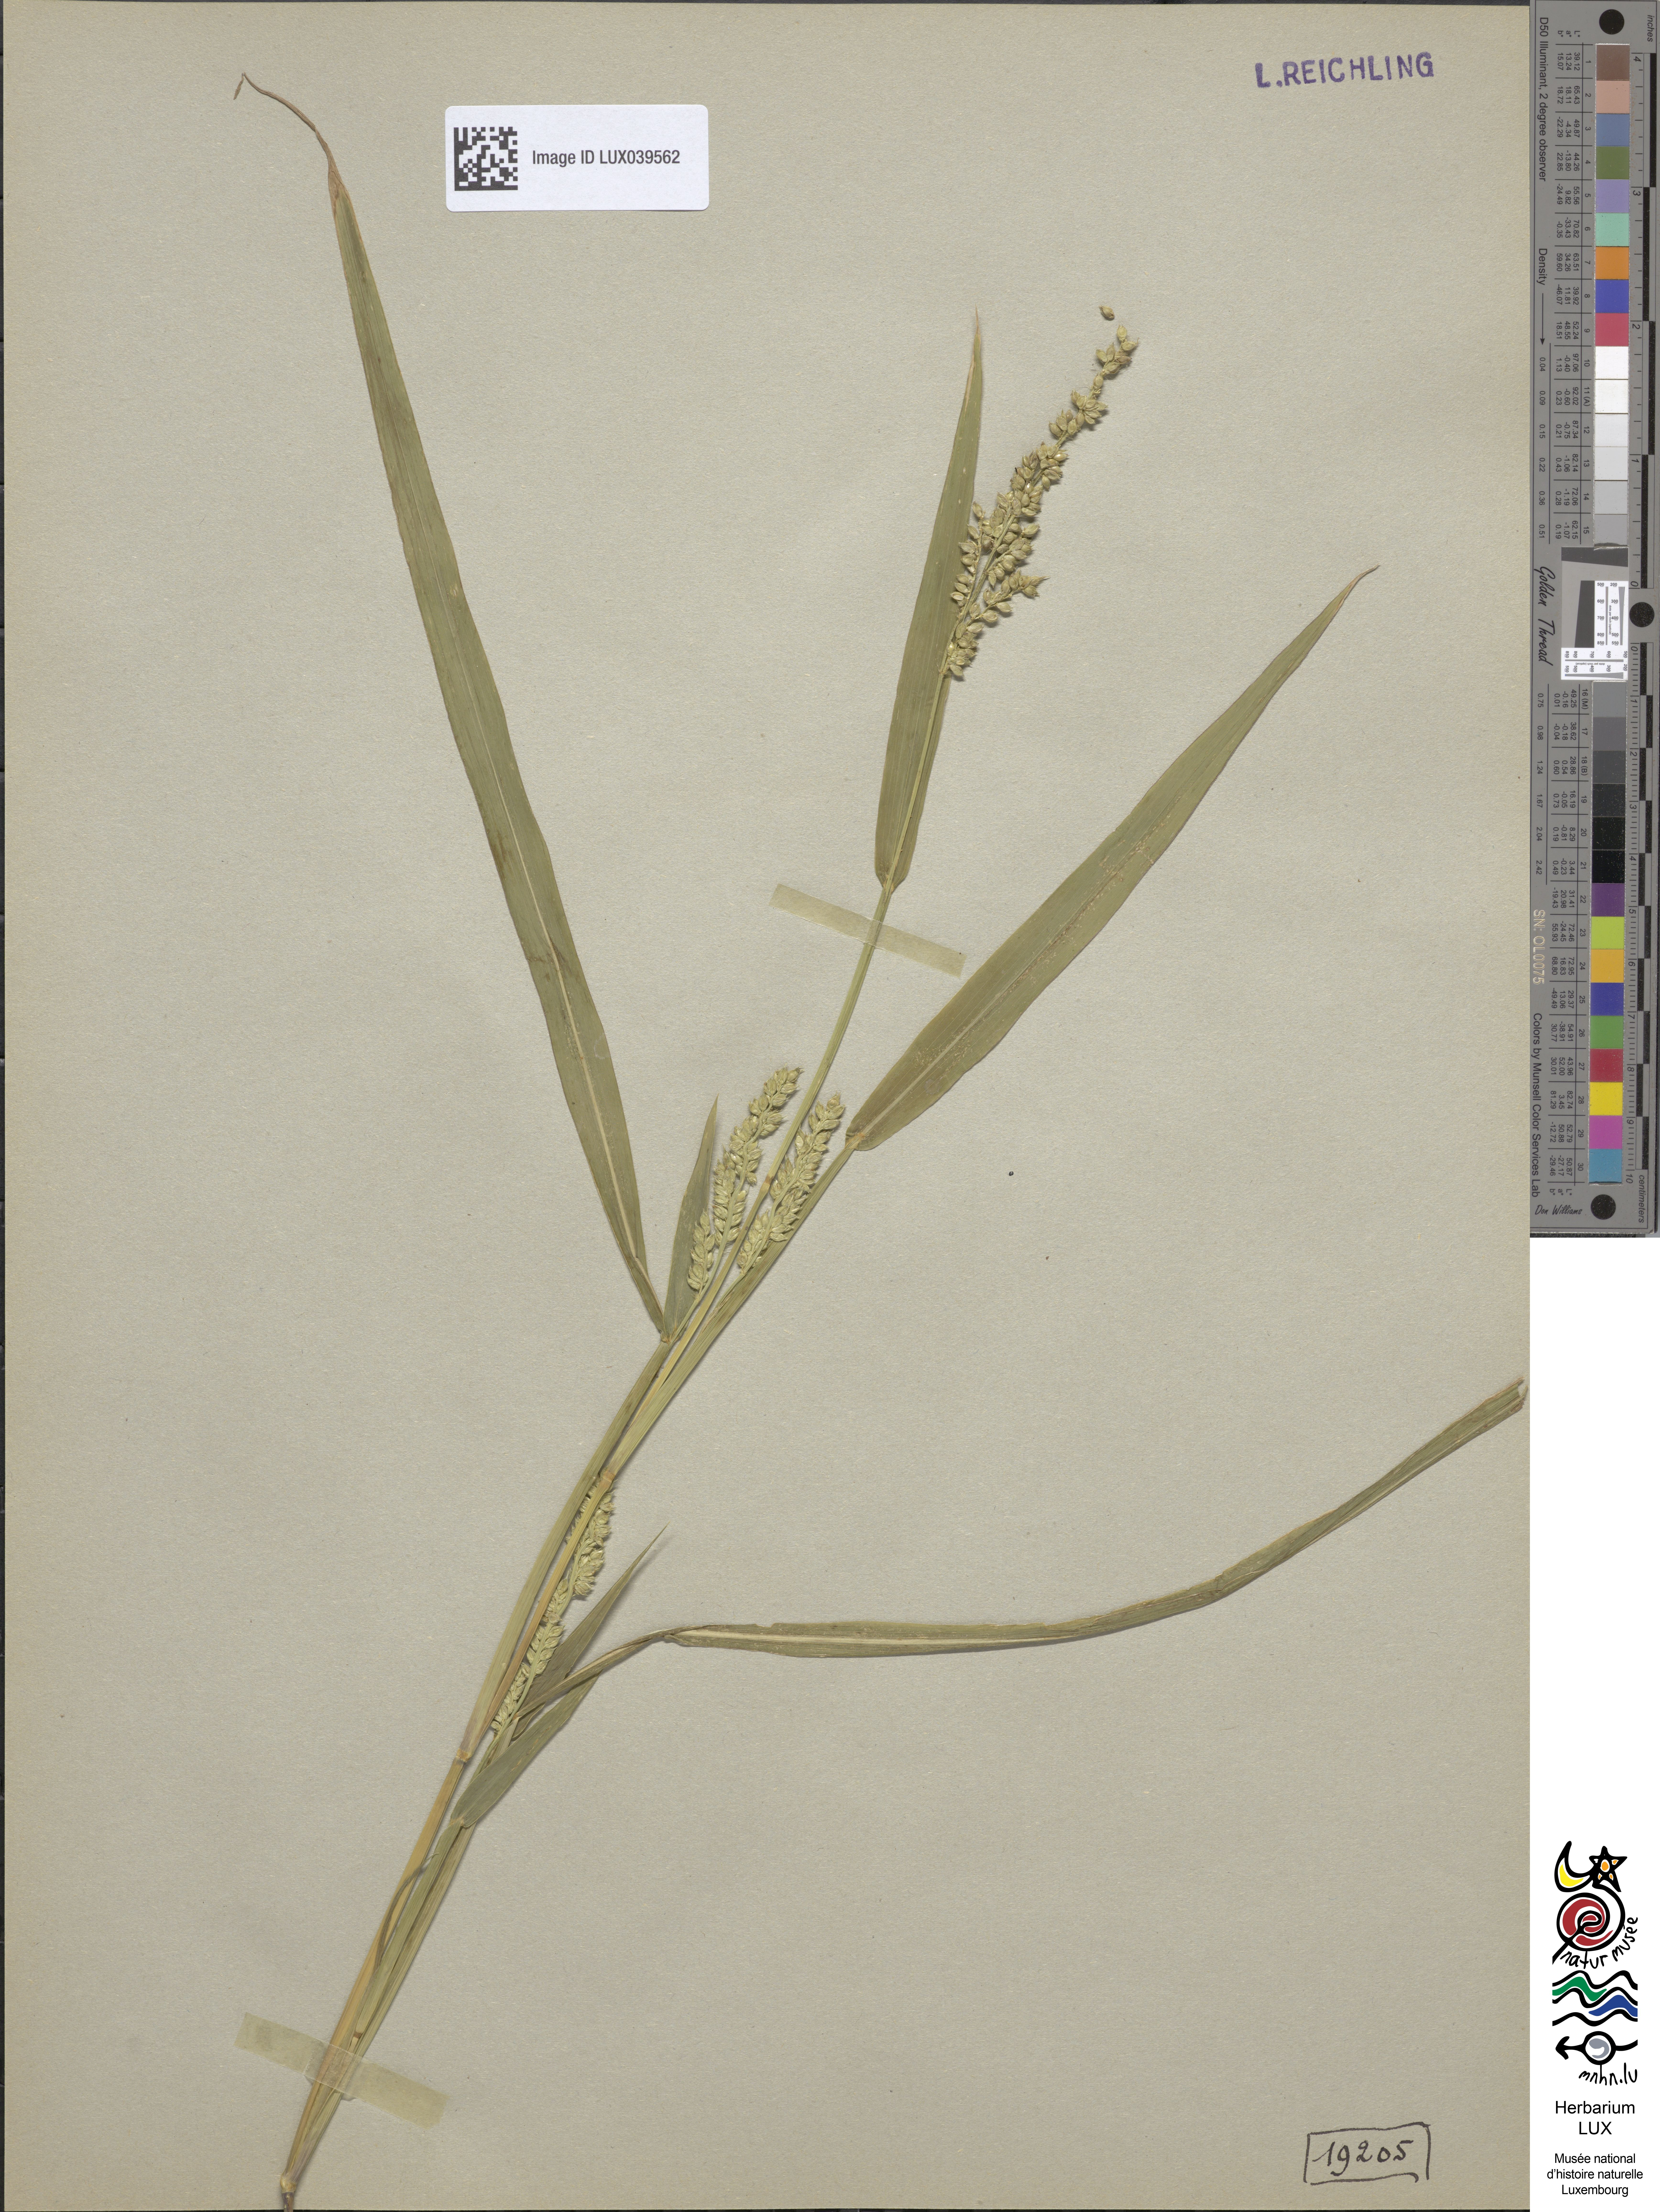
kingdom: Plantae
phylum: Tracheophyta
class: Liliopsida
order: Poales
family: Poaceae
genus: Echinochloa
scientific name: Echinochloa crus-galli
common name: Cockspur
